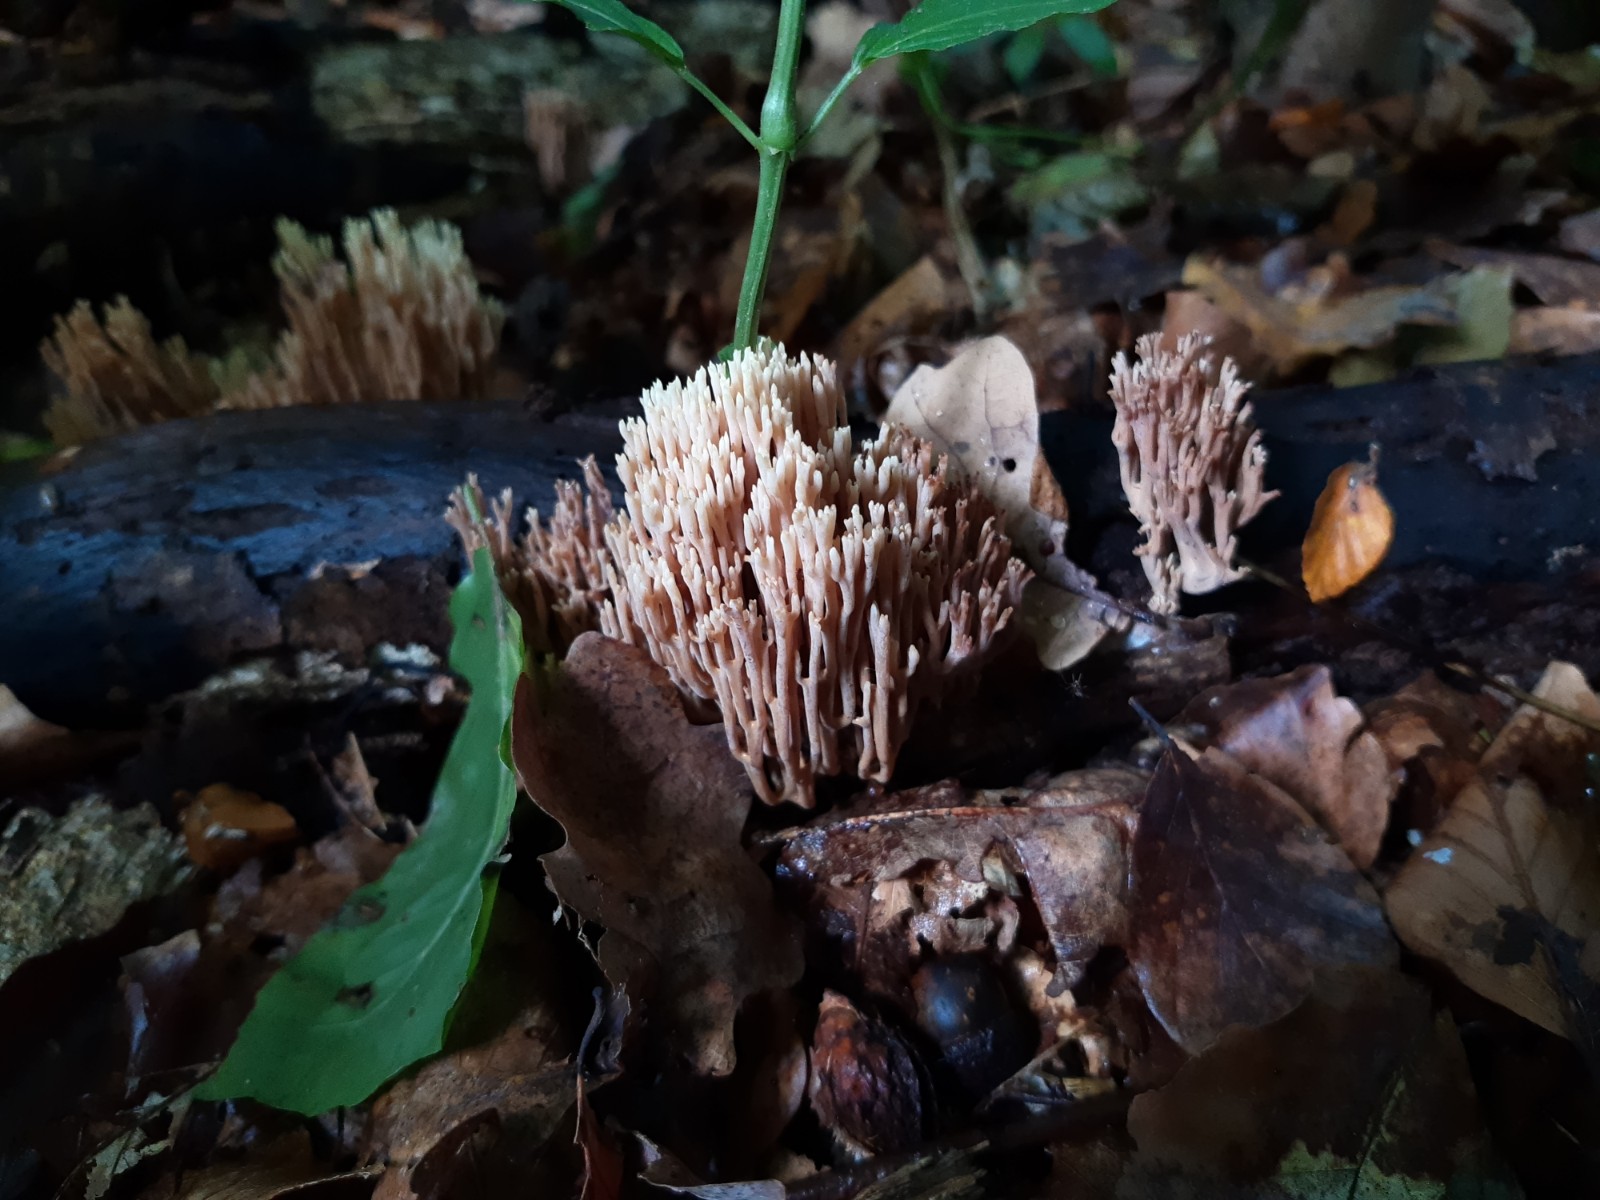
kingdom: Fungi
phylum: Basidiomycota
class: Agaricomycetes
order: Gomphales
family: Gomphaceae
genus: Ramaria
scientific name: Ramaria stricta
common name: rank koralsvamp
